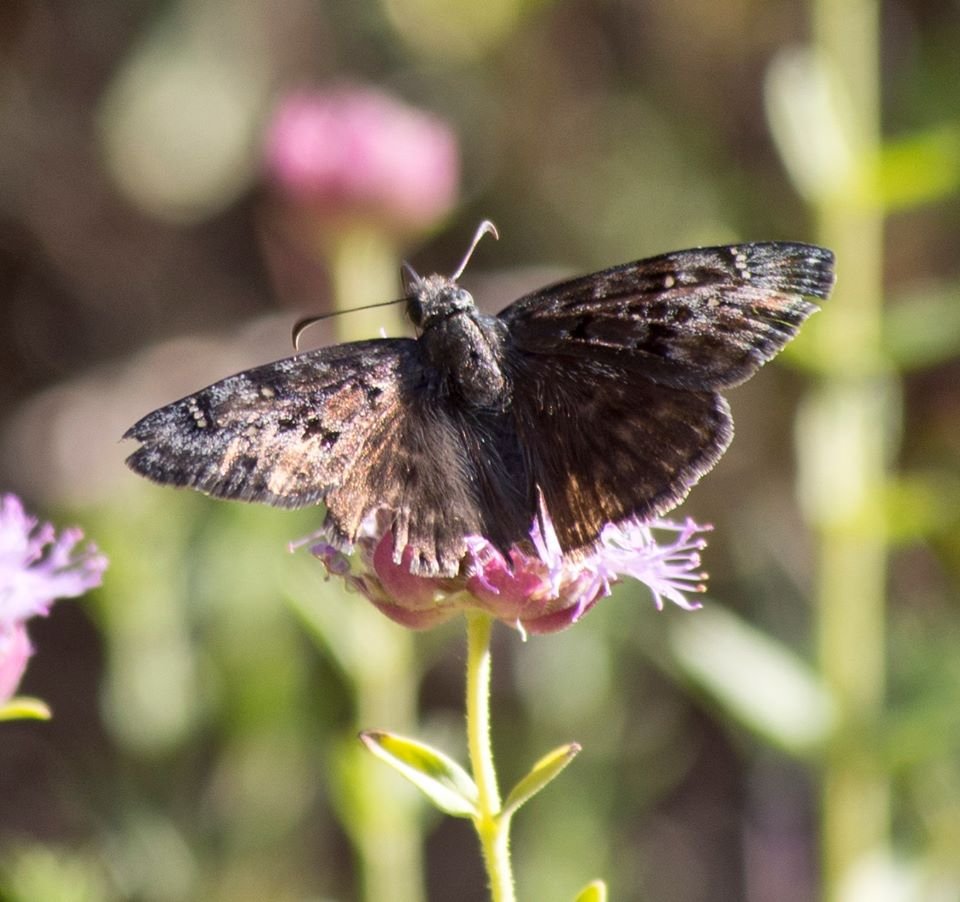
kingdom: Animalia
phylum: Arthropoda
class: Insecta
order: Lepidoptera
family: Hesperiidae
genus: Erynnis
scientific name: Erynnis meridianus
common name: Meridian Duskywing
